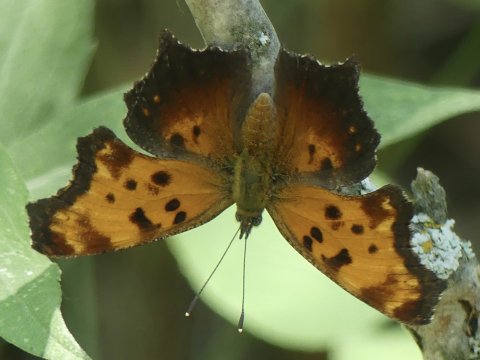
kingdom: Animalia
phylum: Arthropoda
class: Insecta
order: Lepidoptera
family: Nymphalidae
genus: Polygonia
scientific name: Polygonia progne
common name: Gray Comma
